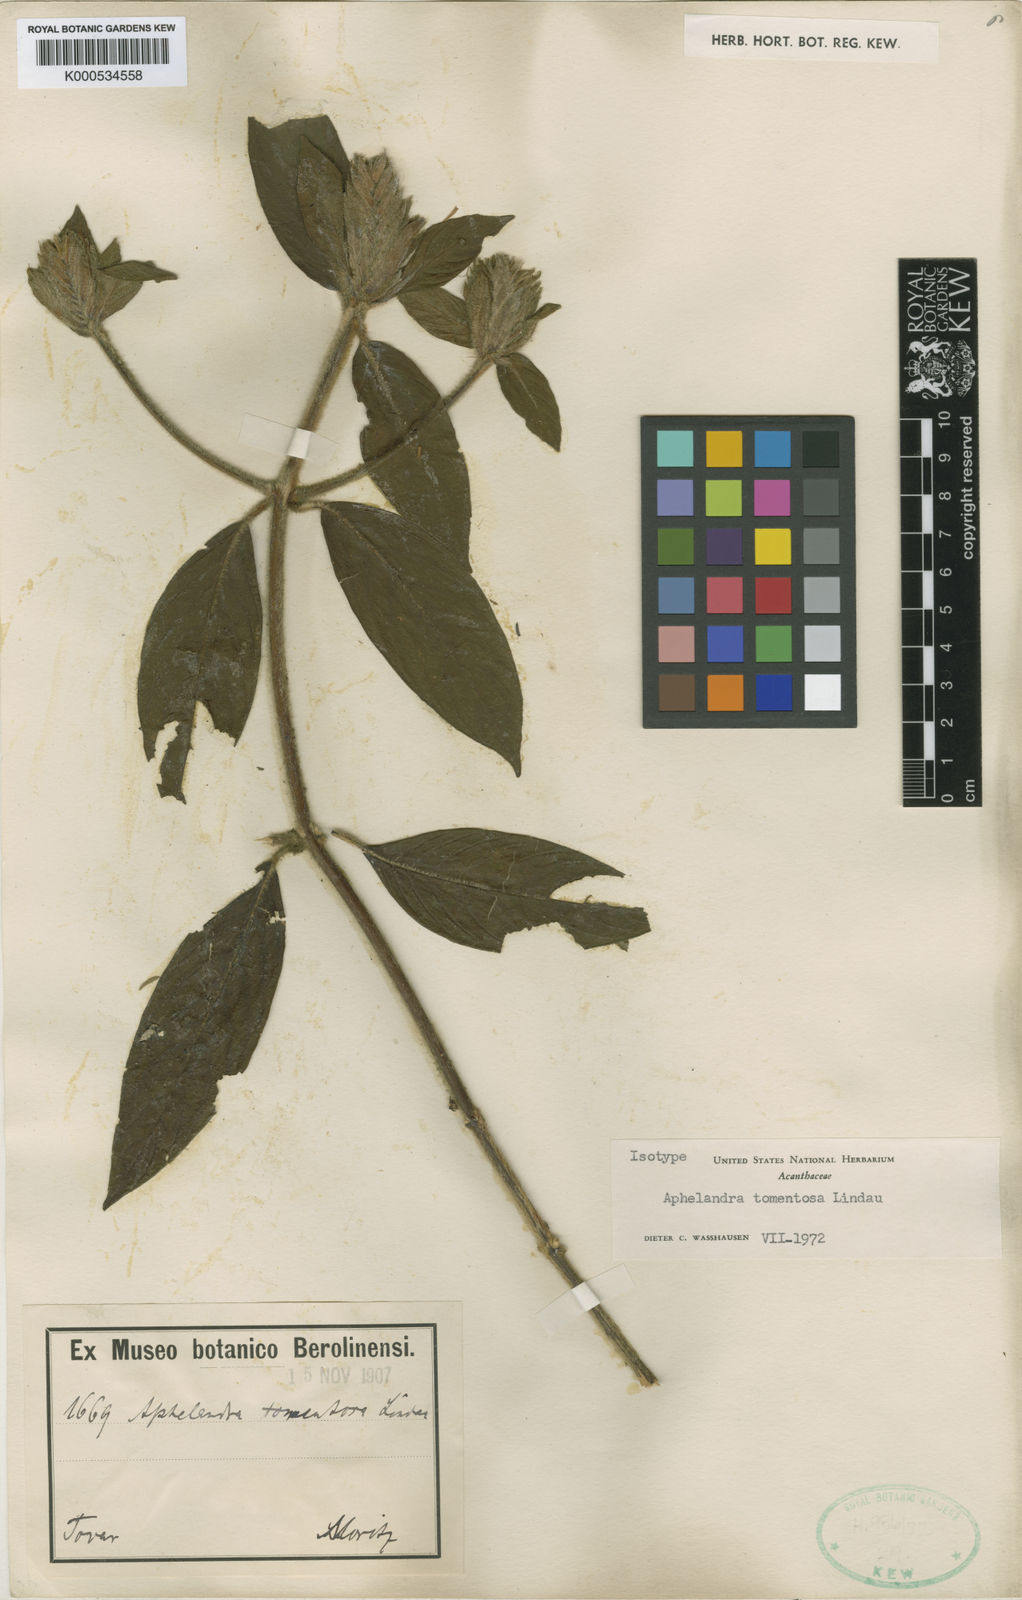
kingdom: Plantae
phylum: Tracheophyta
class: Magnoliopsida
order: Lamiales
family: Acanthaceae
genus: Aphelandra
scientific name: Aphelandra tomentosa
